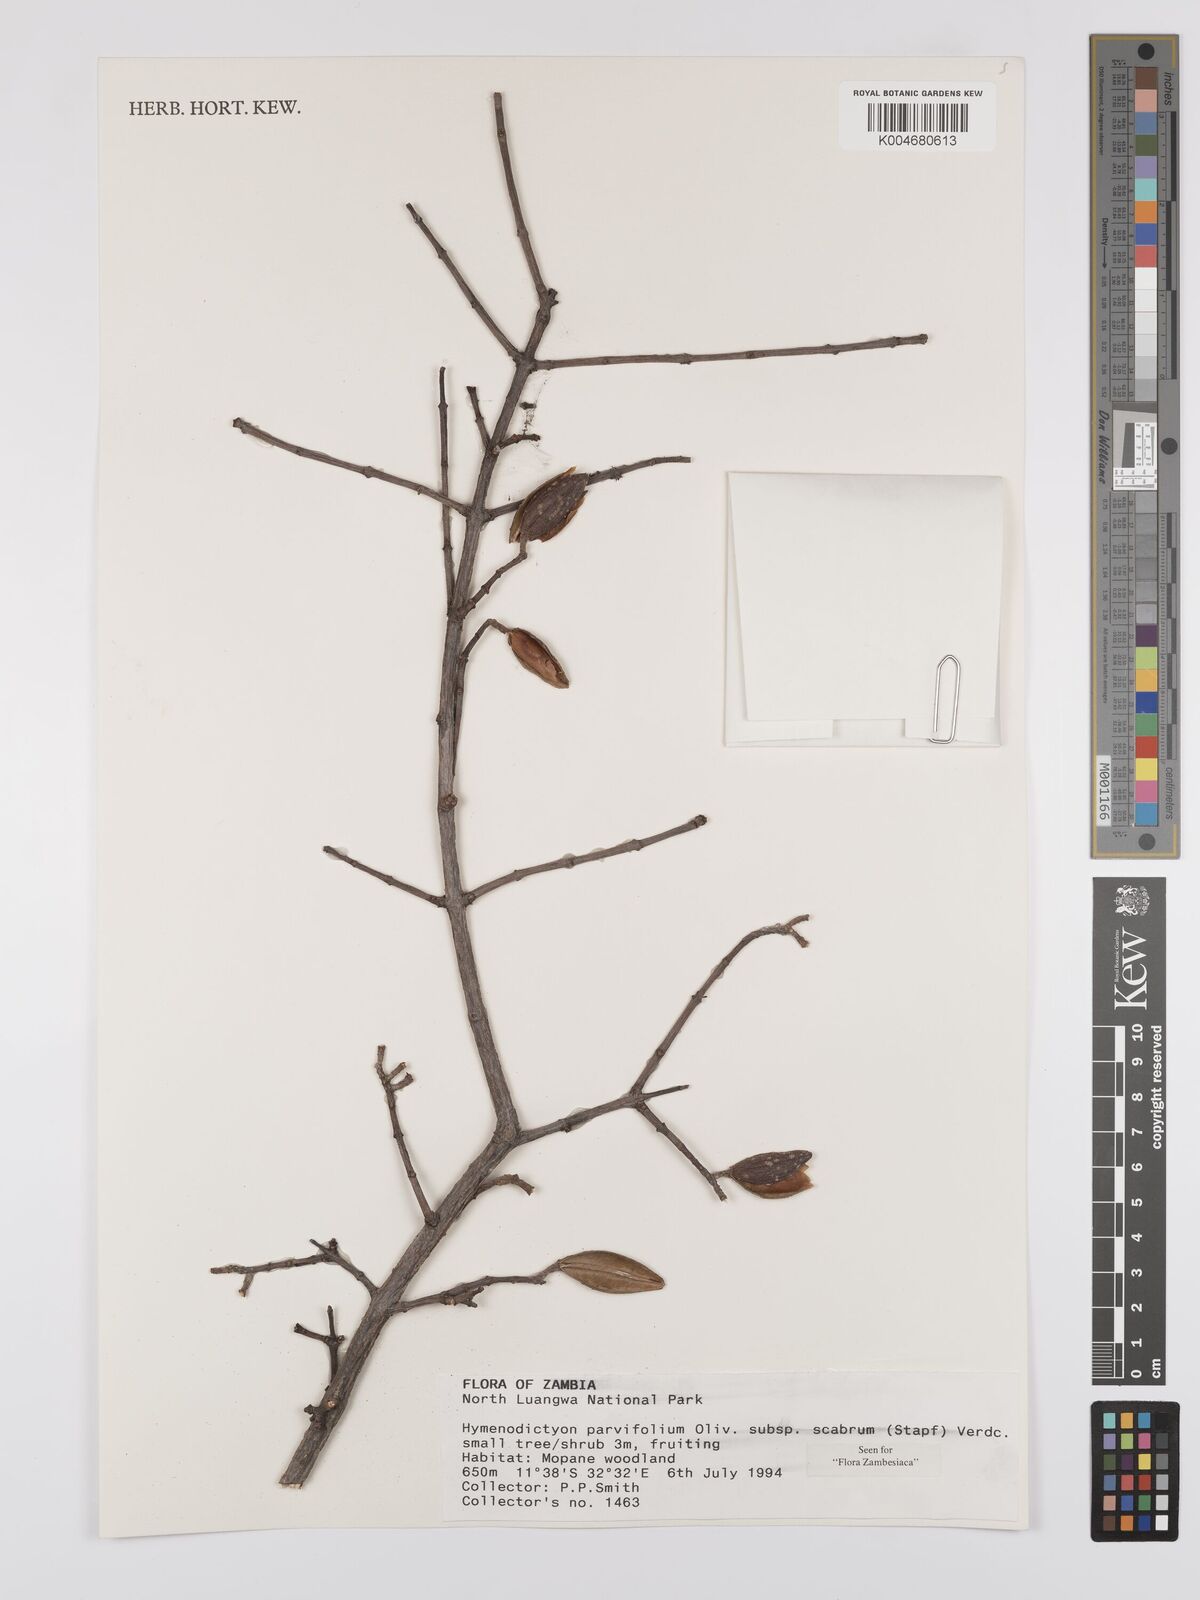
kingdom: Plantae
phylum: Tracheophyta
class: Magnoliopsida
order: Gentianales
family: Rubiaceae
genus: Hymenodictyon
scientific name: Hymenodictyon scabrum
